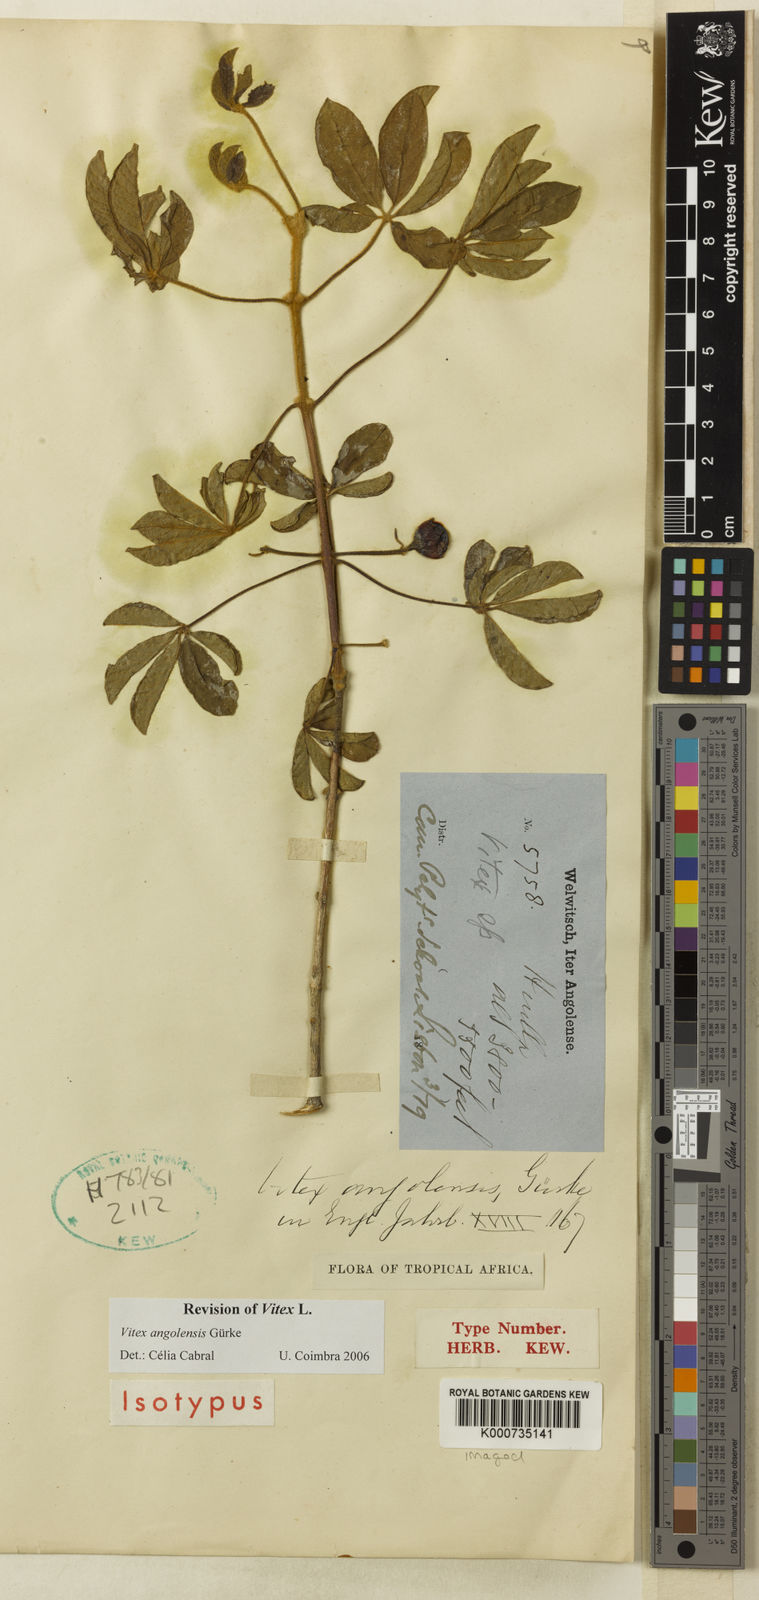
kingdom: Plantae
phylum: Tracheophyta
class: Magnoliopsida
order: Lamiales
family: Lamiaceae
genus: Vitex
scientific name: Vitex
